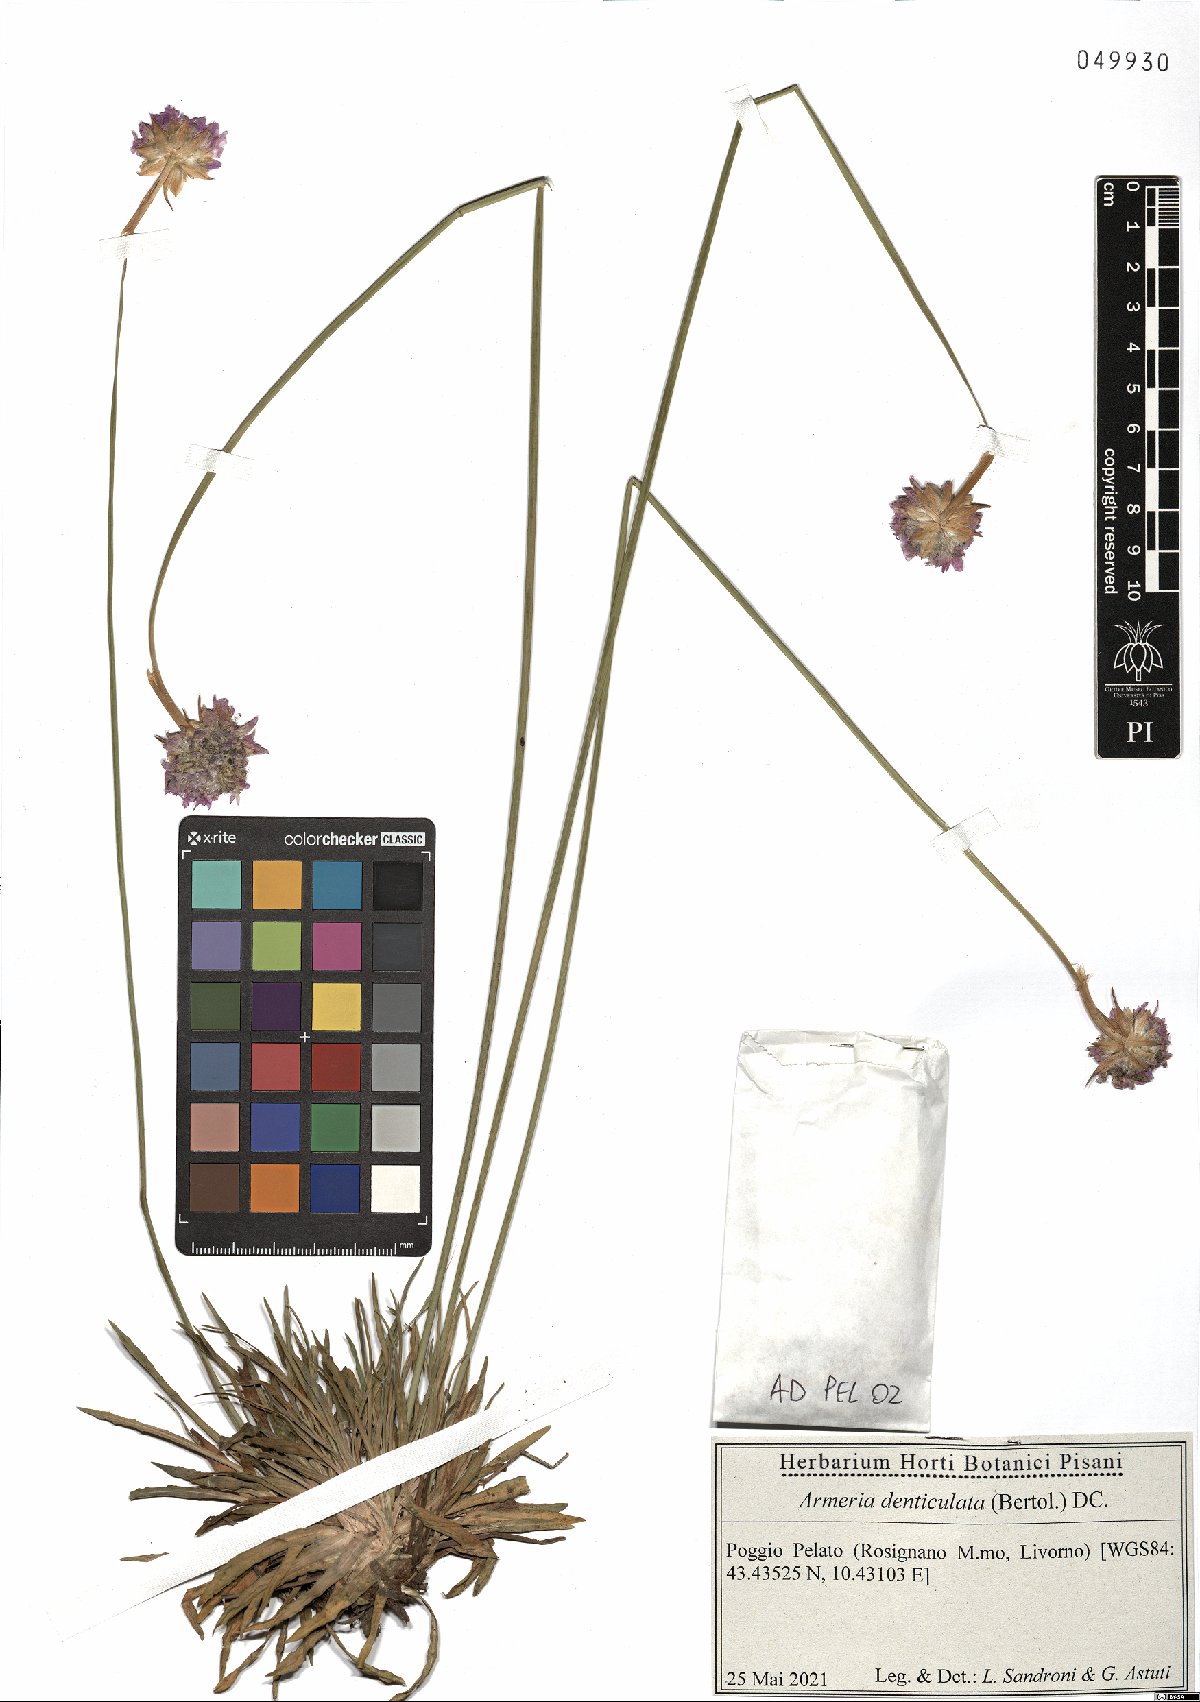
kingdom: Plantae
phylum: Tracheophyta
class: Magnoliopsida
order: Caryophyllales
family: Plumbaginaceae
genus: Armeria
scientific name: Armeria denticulata
